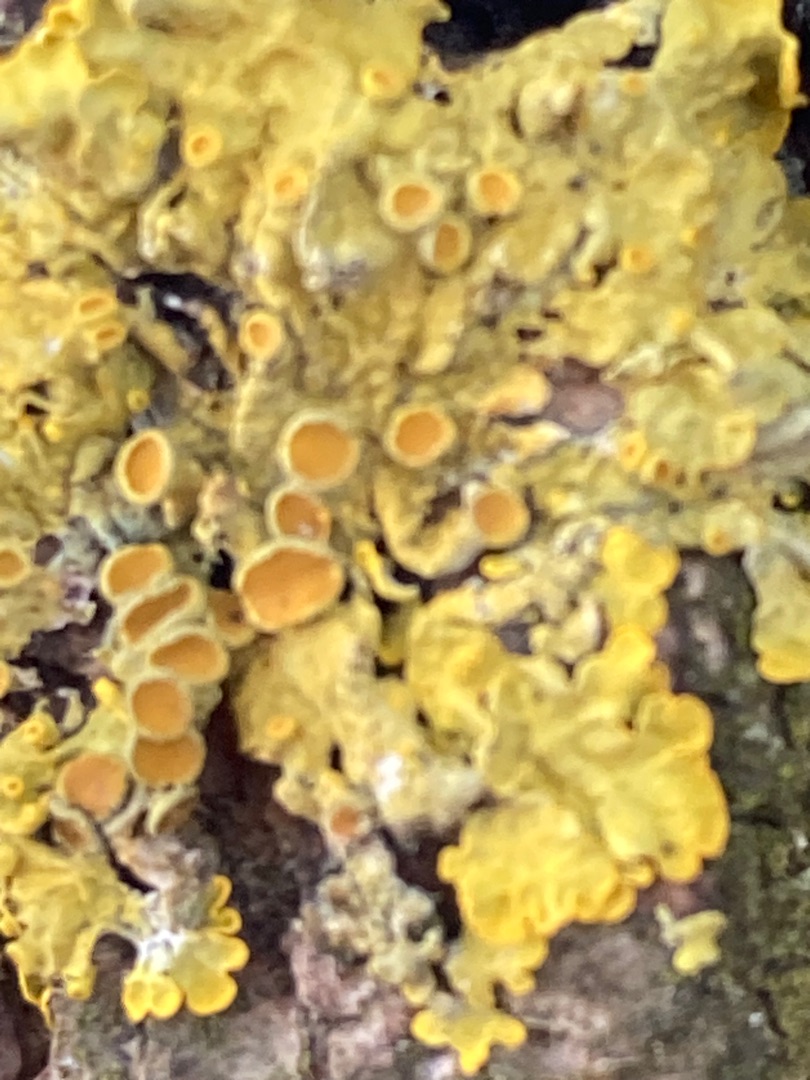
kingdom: Fungi
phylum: Ascomycota
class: Lecanoromycetes
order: Teloschistales
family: Teloschistaceae
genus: Xanthoria
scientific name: Xanthoria parietina
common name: Almindelig væggelav
